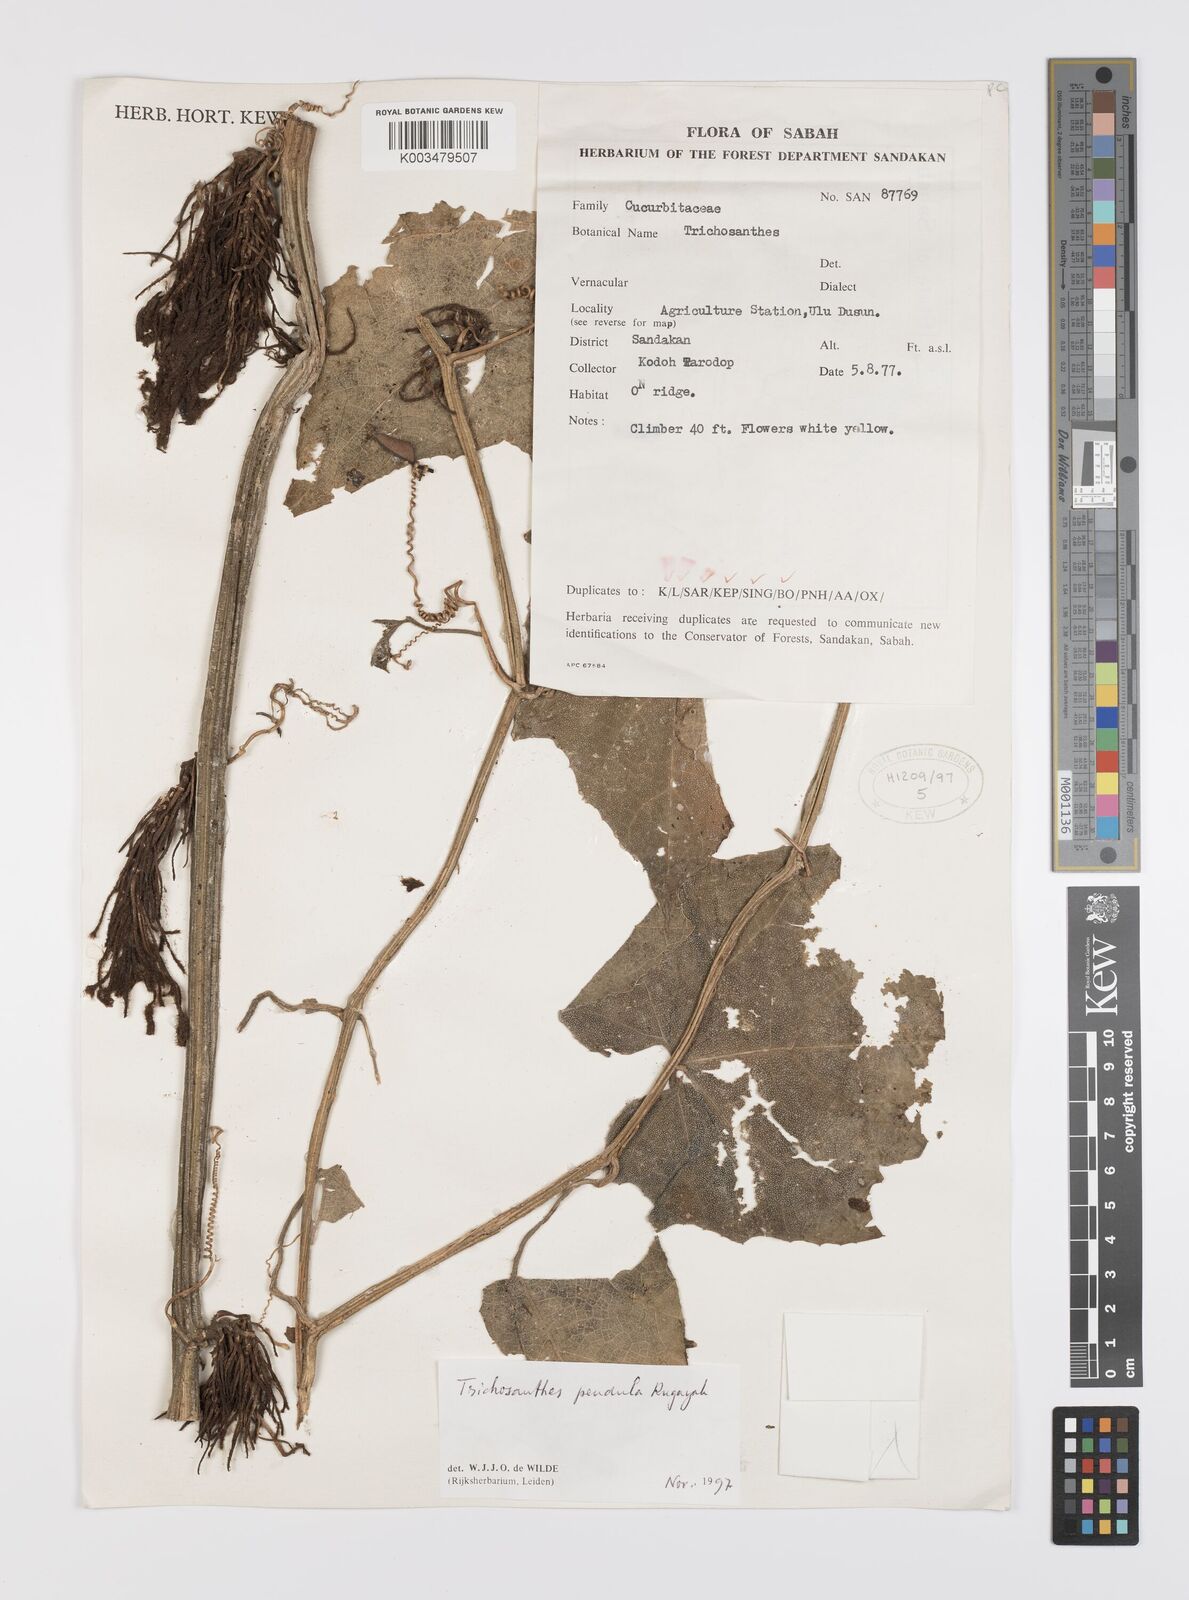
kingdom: Plantae
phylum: Tracheophyta
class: Magnoliopsida
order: Cucurbitales
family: Cucurbitaceae
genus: Trichosanthes
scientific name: Trichosanthes pendula
